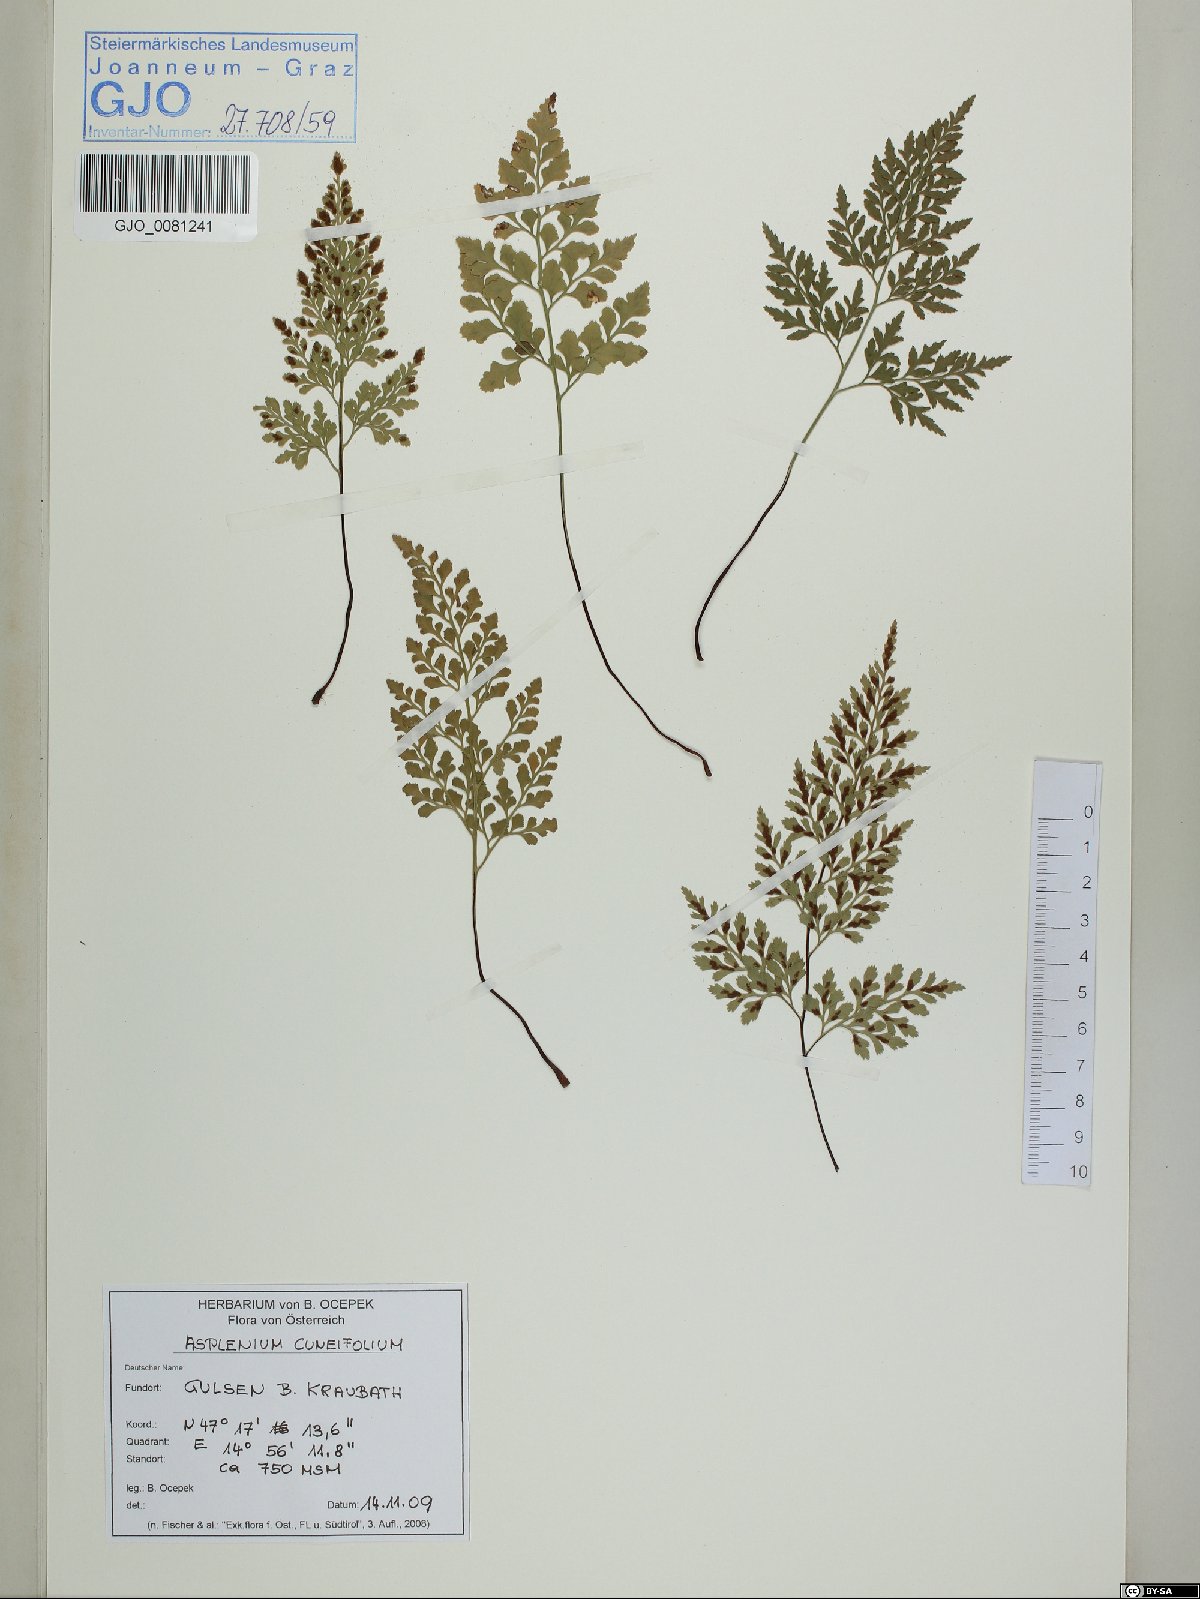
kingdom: Plantae
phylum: Tracheophyta
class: Polypodiopsida
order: Polypodiales
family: Aspleniaceae
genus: Asplenium
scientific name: Asplenium cuneifolium
